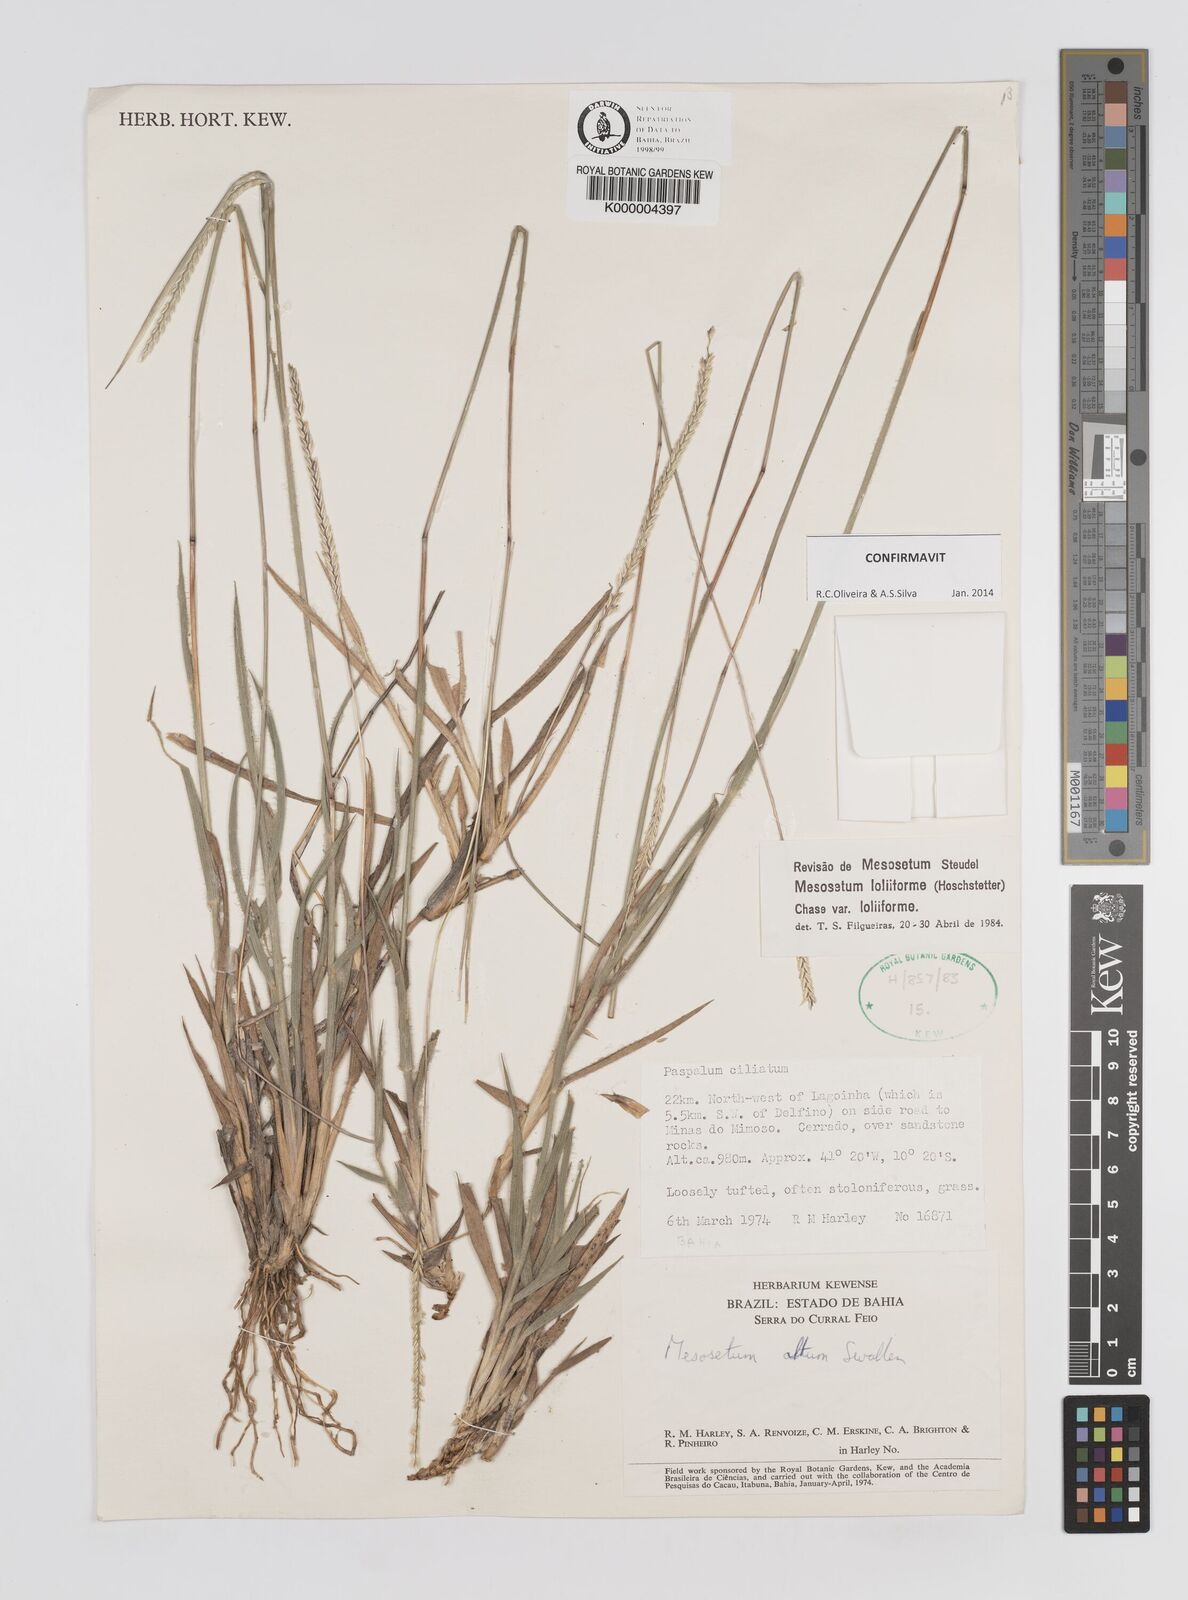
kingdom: Plantae
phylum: Tracheophyta
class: Liliopsida
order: Poales
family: Poaceae
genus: Mesosetum
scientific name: Mesosetum
